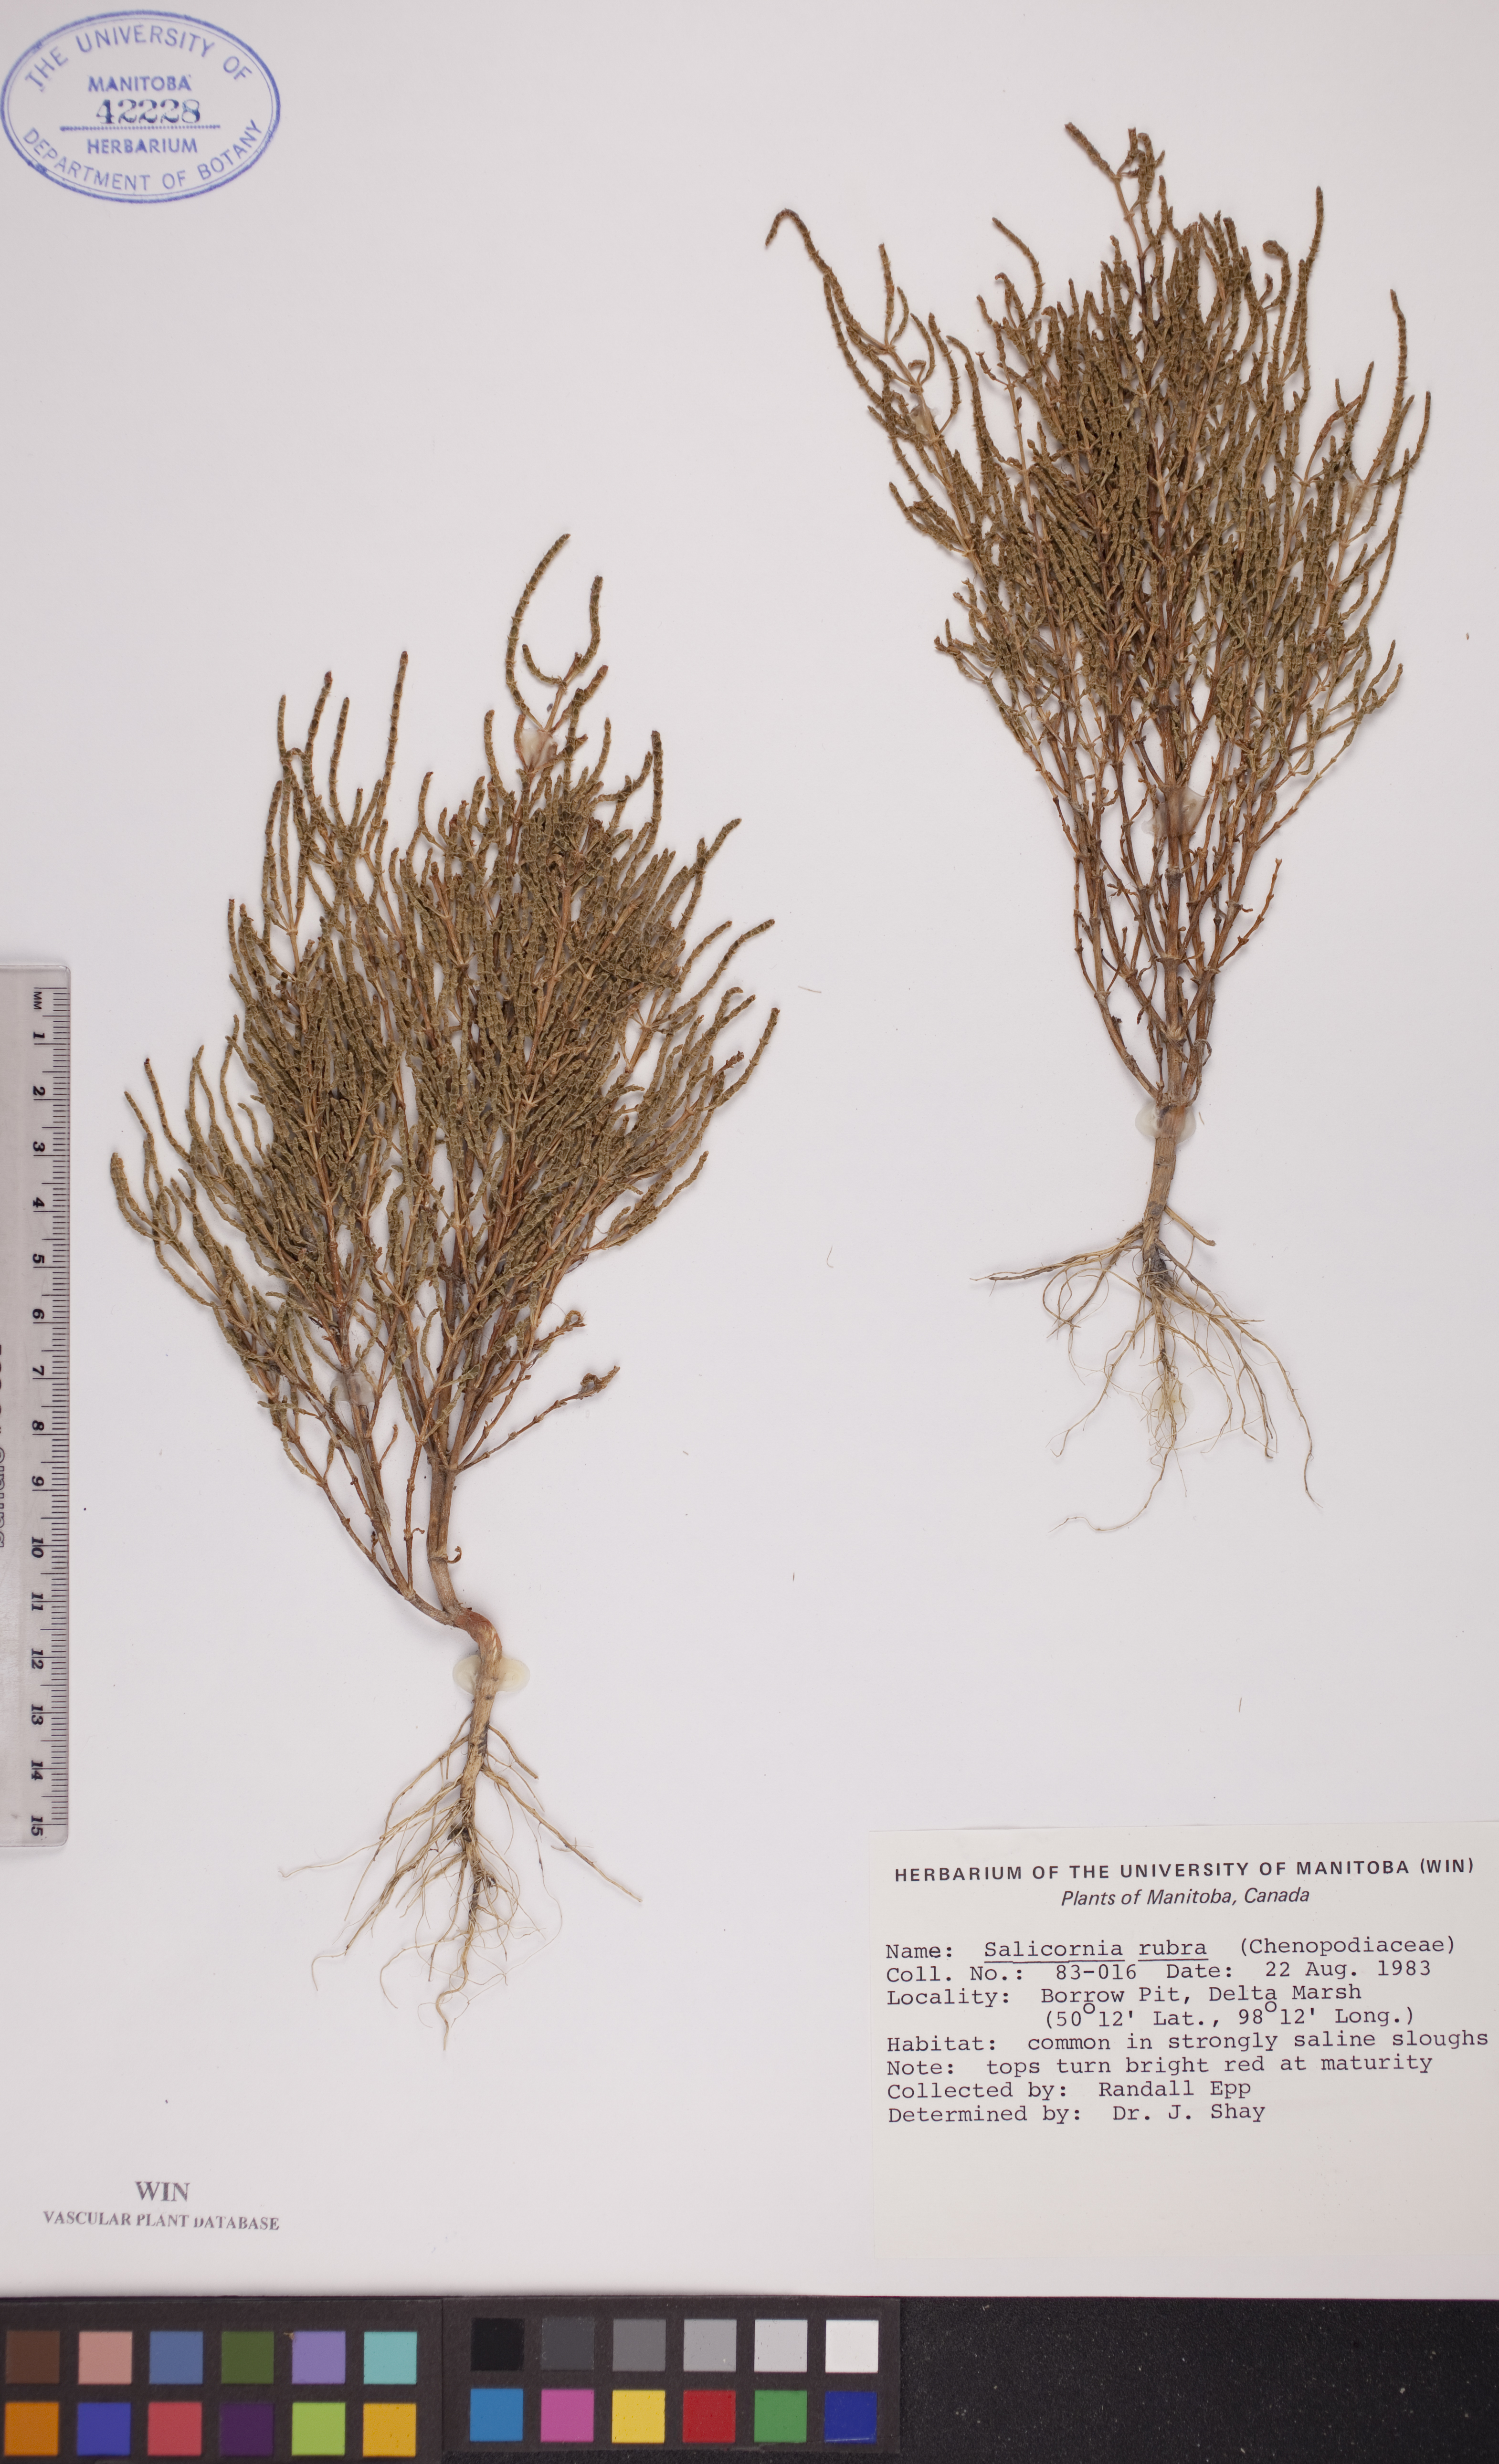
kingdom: Plantae
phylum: Tracheophyta
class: Magnoliopsida
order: Caryophyllales
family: Amaranthaceae
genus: Salicornia
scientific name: Salicornia rubra
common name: Red glasswort
